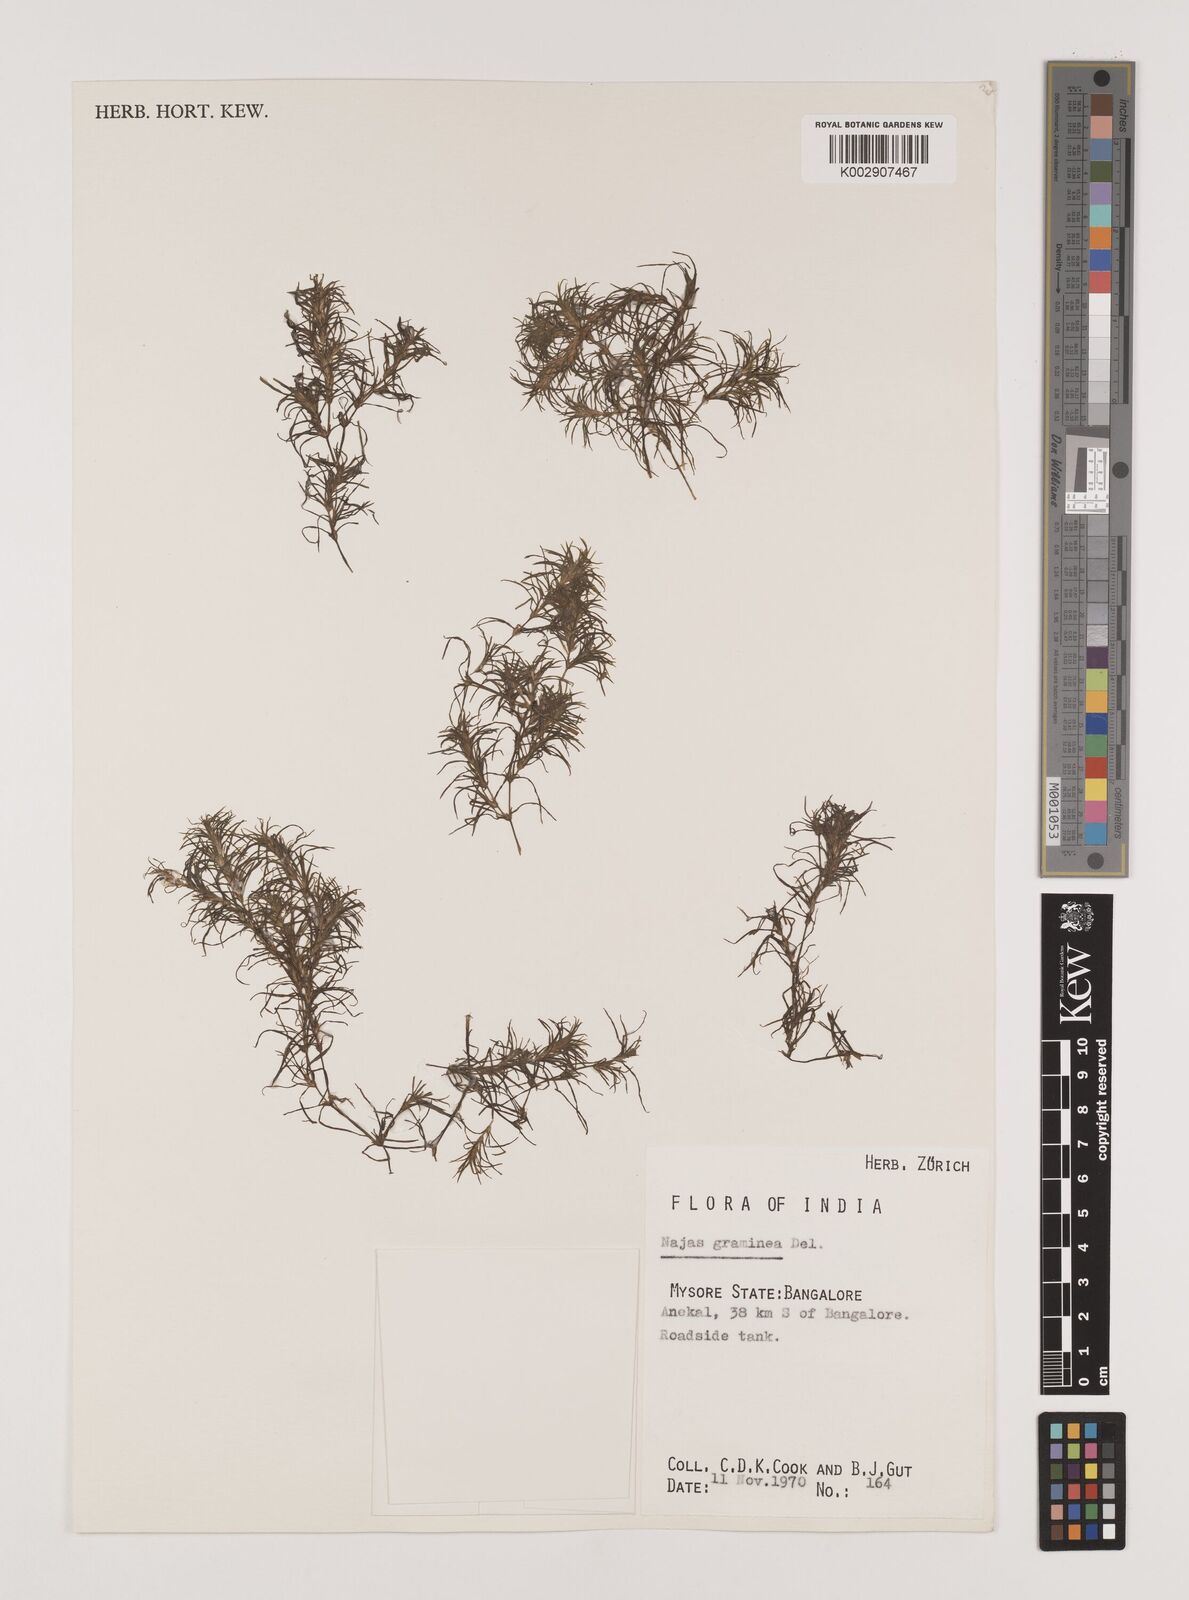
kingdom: Plantae
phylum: Tracheophyta
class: Liliopsida
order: Alismatales
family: Hydrocharitaceae
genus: Najas
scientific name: Najas graminea
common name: Ricefield waternymph
